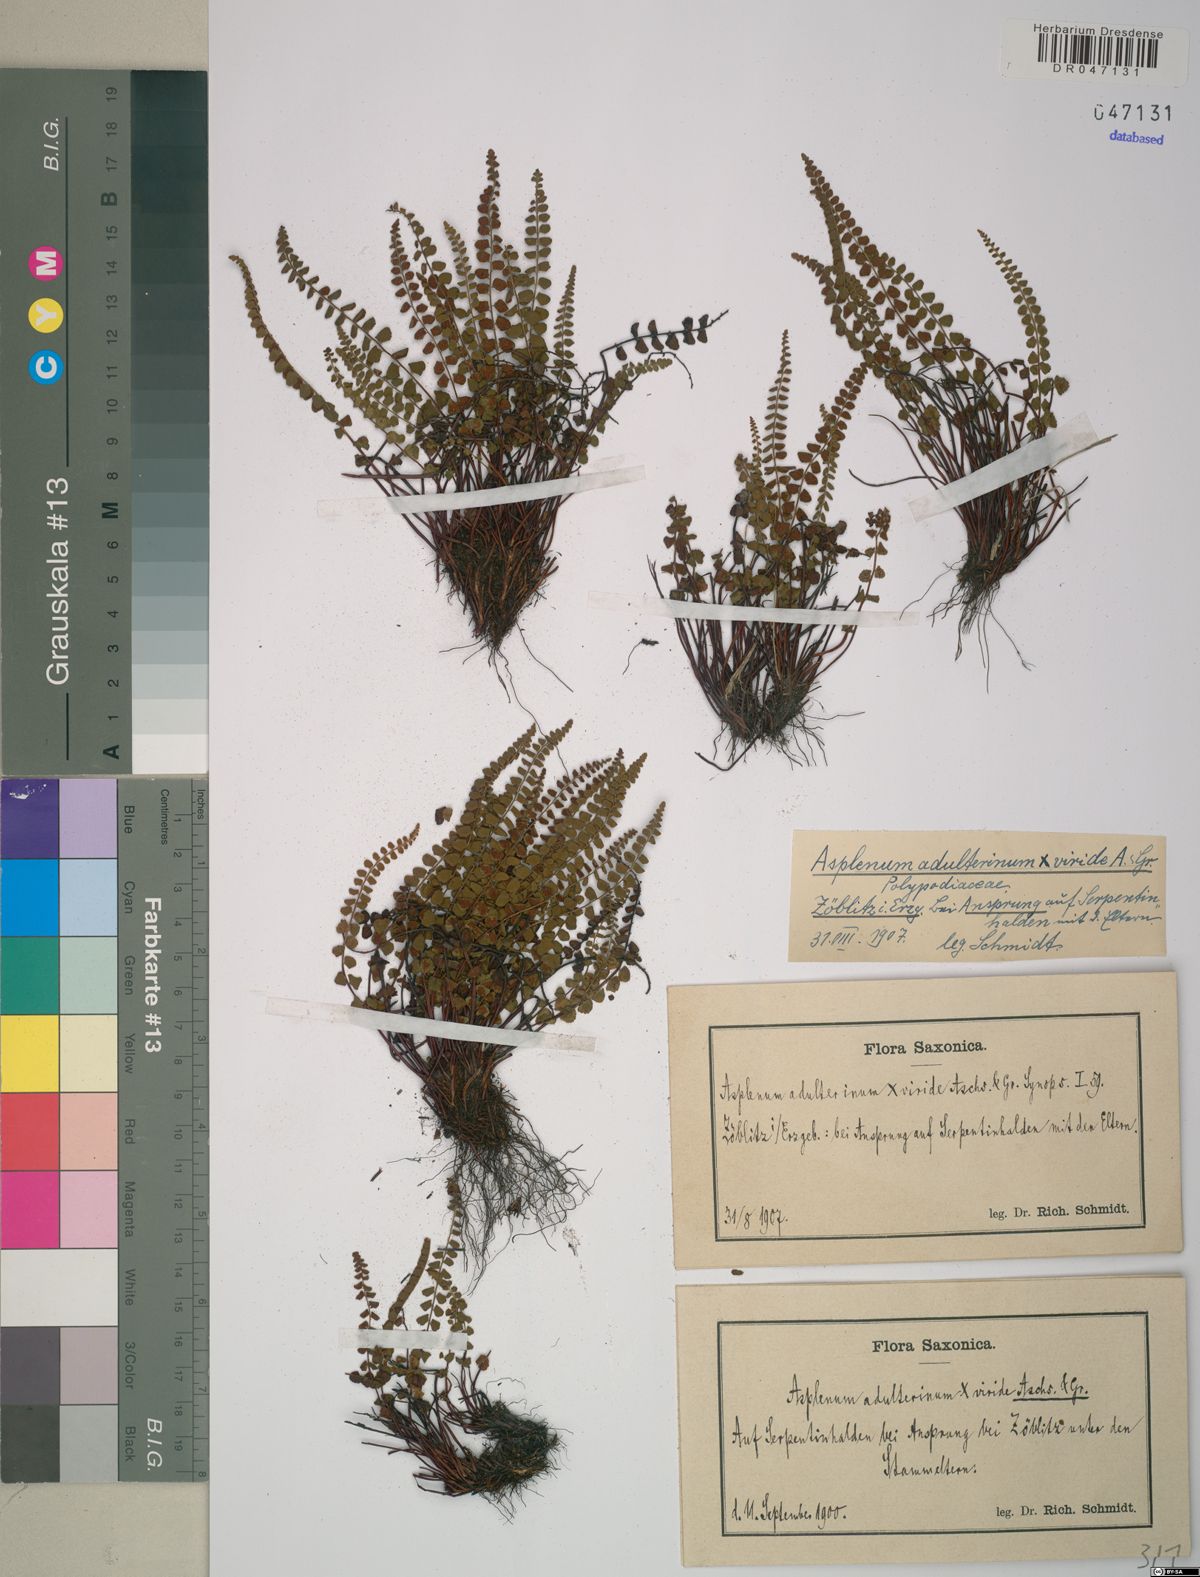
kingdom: Plantae
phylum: Tracheophyta
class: Polypodiopsida
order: Polypodiales
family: Aspleniaceae
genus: Asplenium
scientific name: Asplenium adulterinum
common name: Adulterated spleenwort
